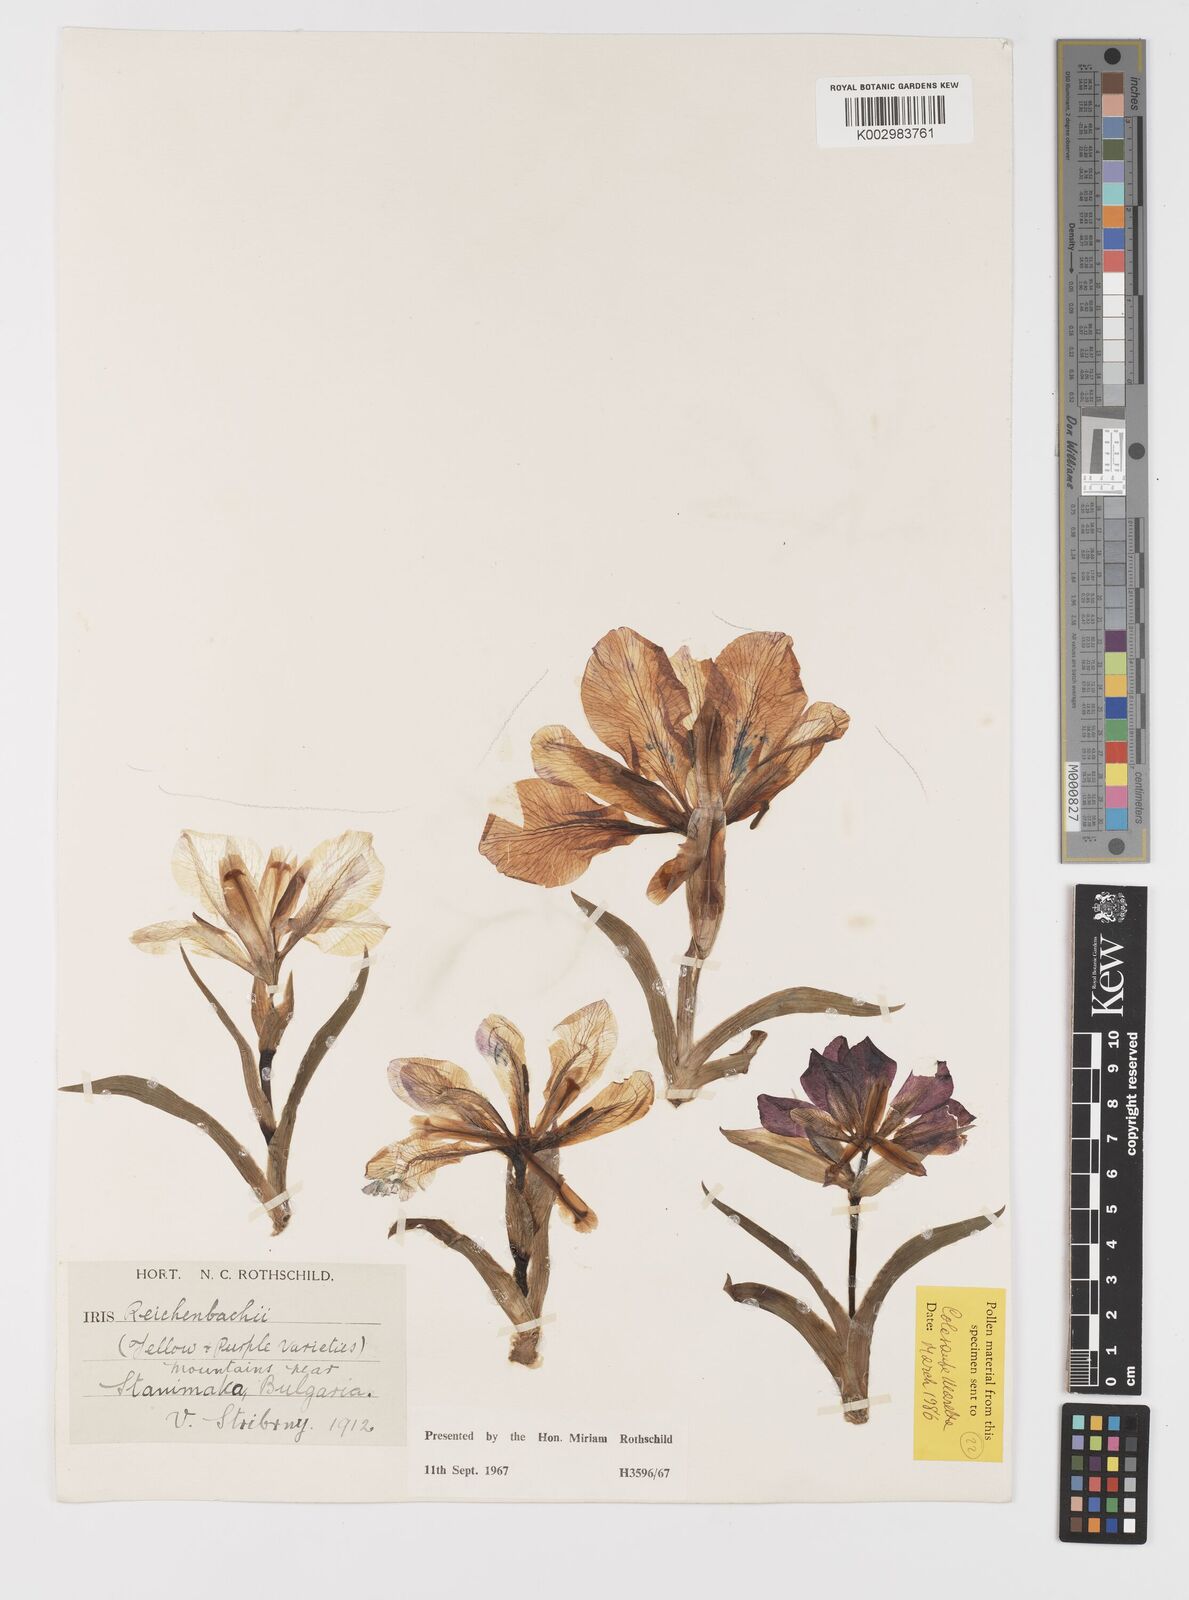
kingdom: Plantae
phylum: Tracheophyta
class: Liliopsida
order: Asparagales
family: Iridaceae
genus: Iris
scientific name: Iris reichenbachii
